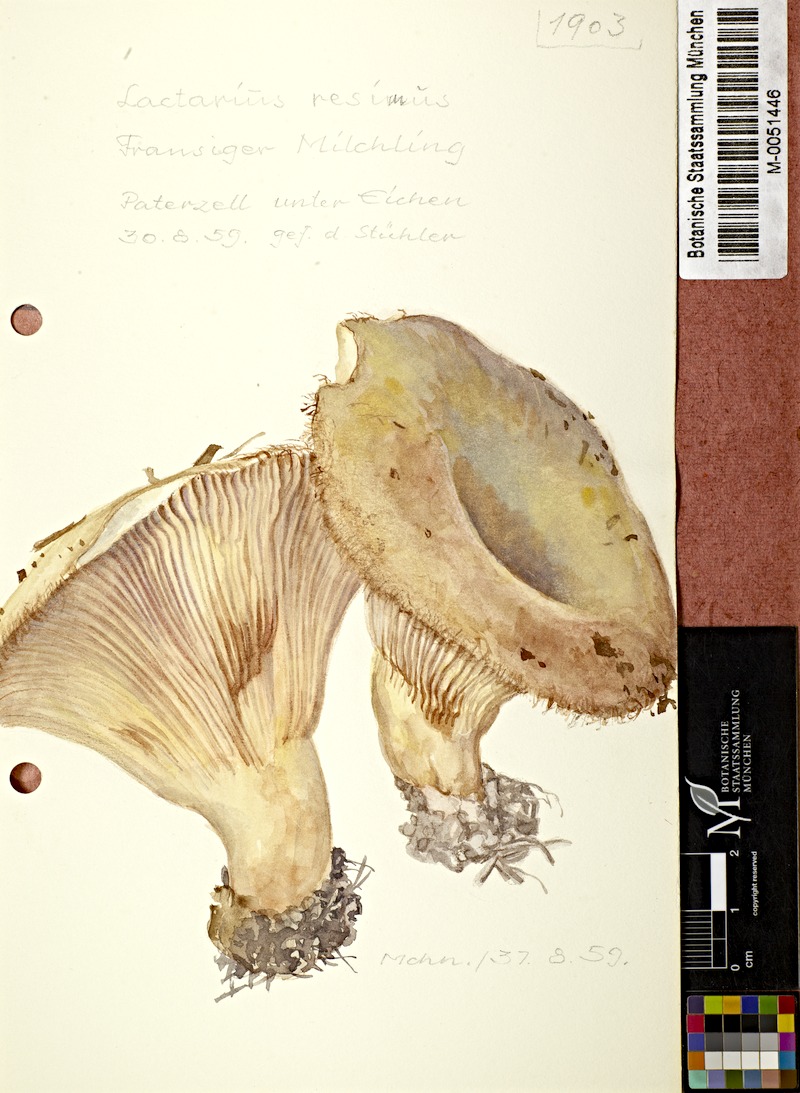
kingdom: Fungi
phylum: Basidiomycota
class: Agaricomycetes
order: Russulales
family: Russulaceae
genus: Lactarius
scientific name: Lactarius resimus
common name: Rollrim milkcap
